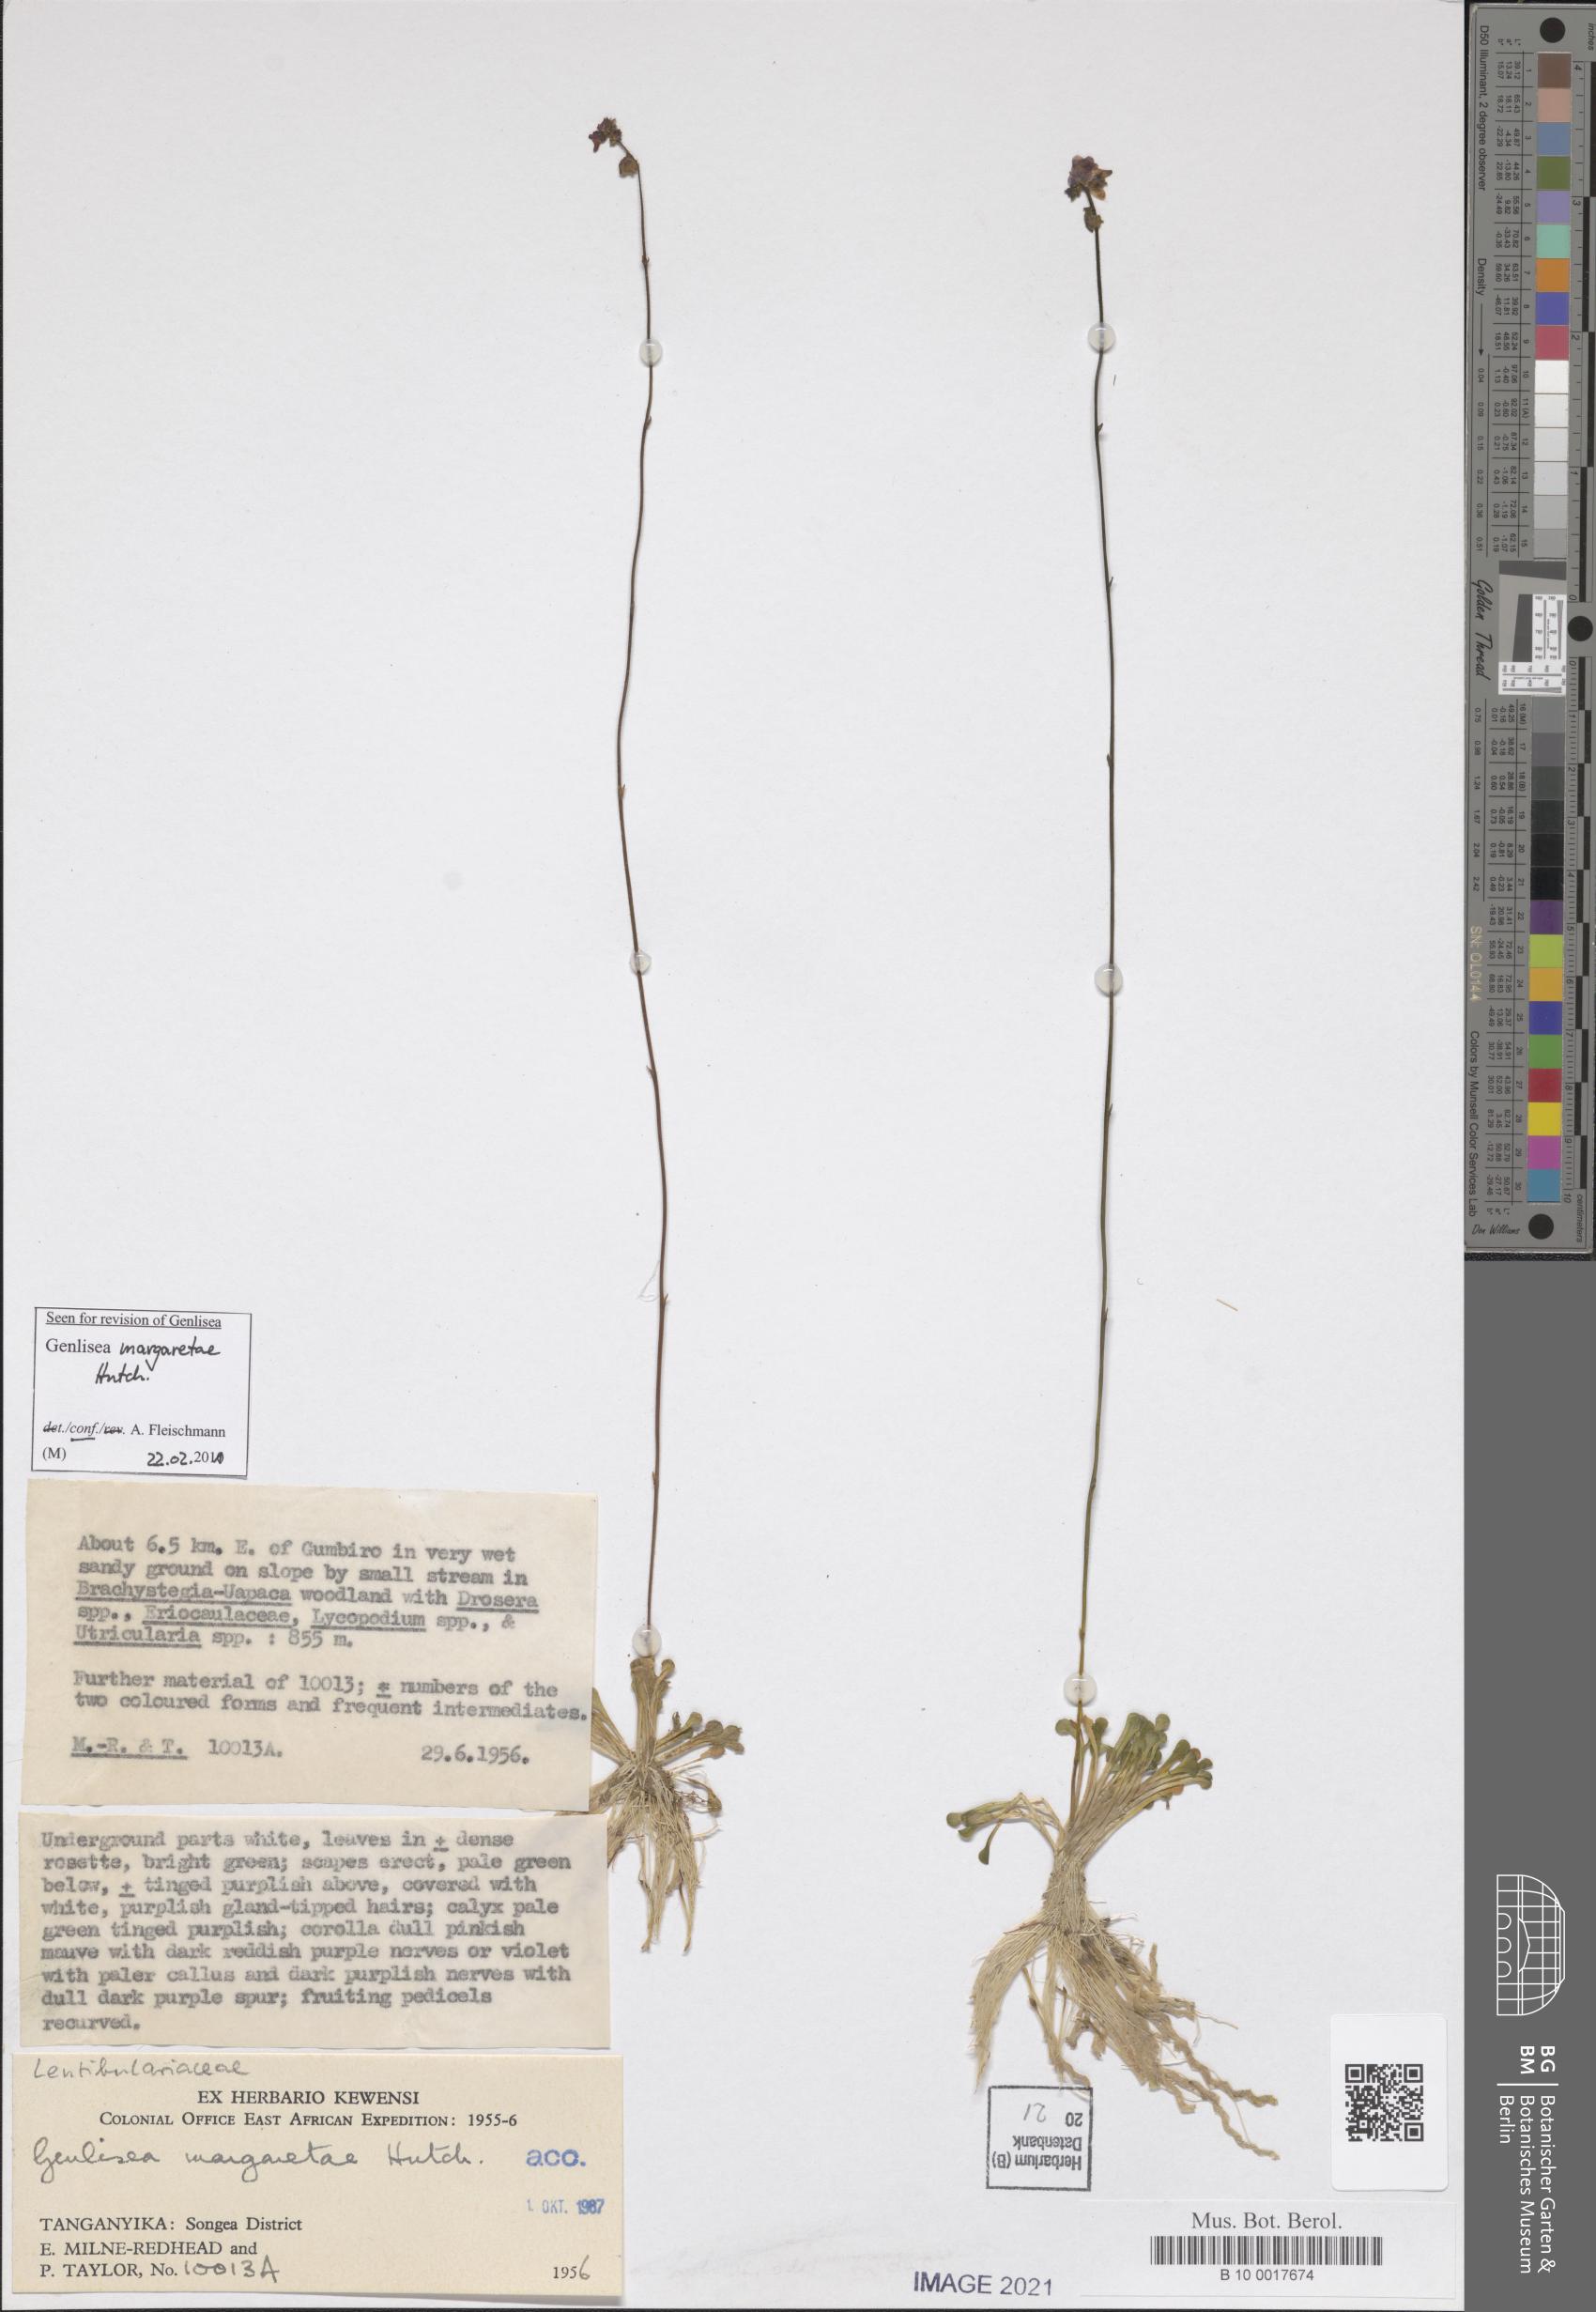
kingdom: Plantae
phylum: Tracheophyta
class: Magnoliopsida
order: Lamiales
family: Lentibulariaceae
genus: Genlisea
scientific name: Genlisea margaretae
